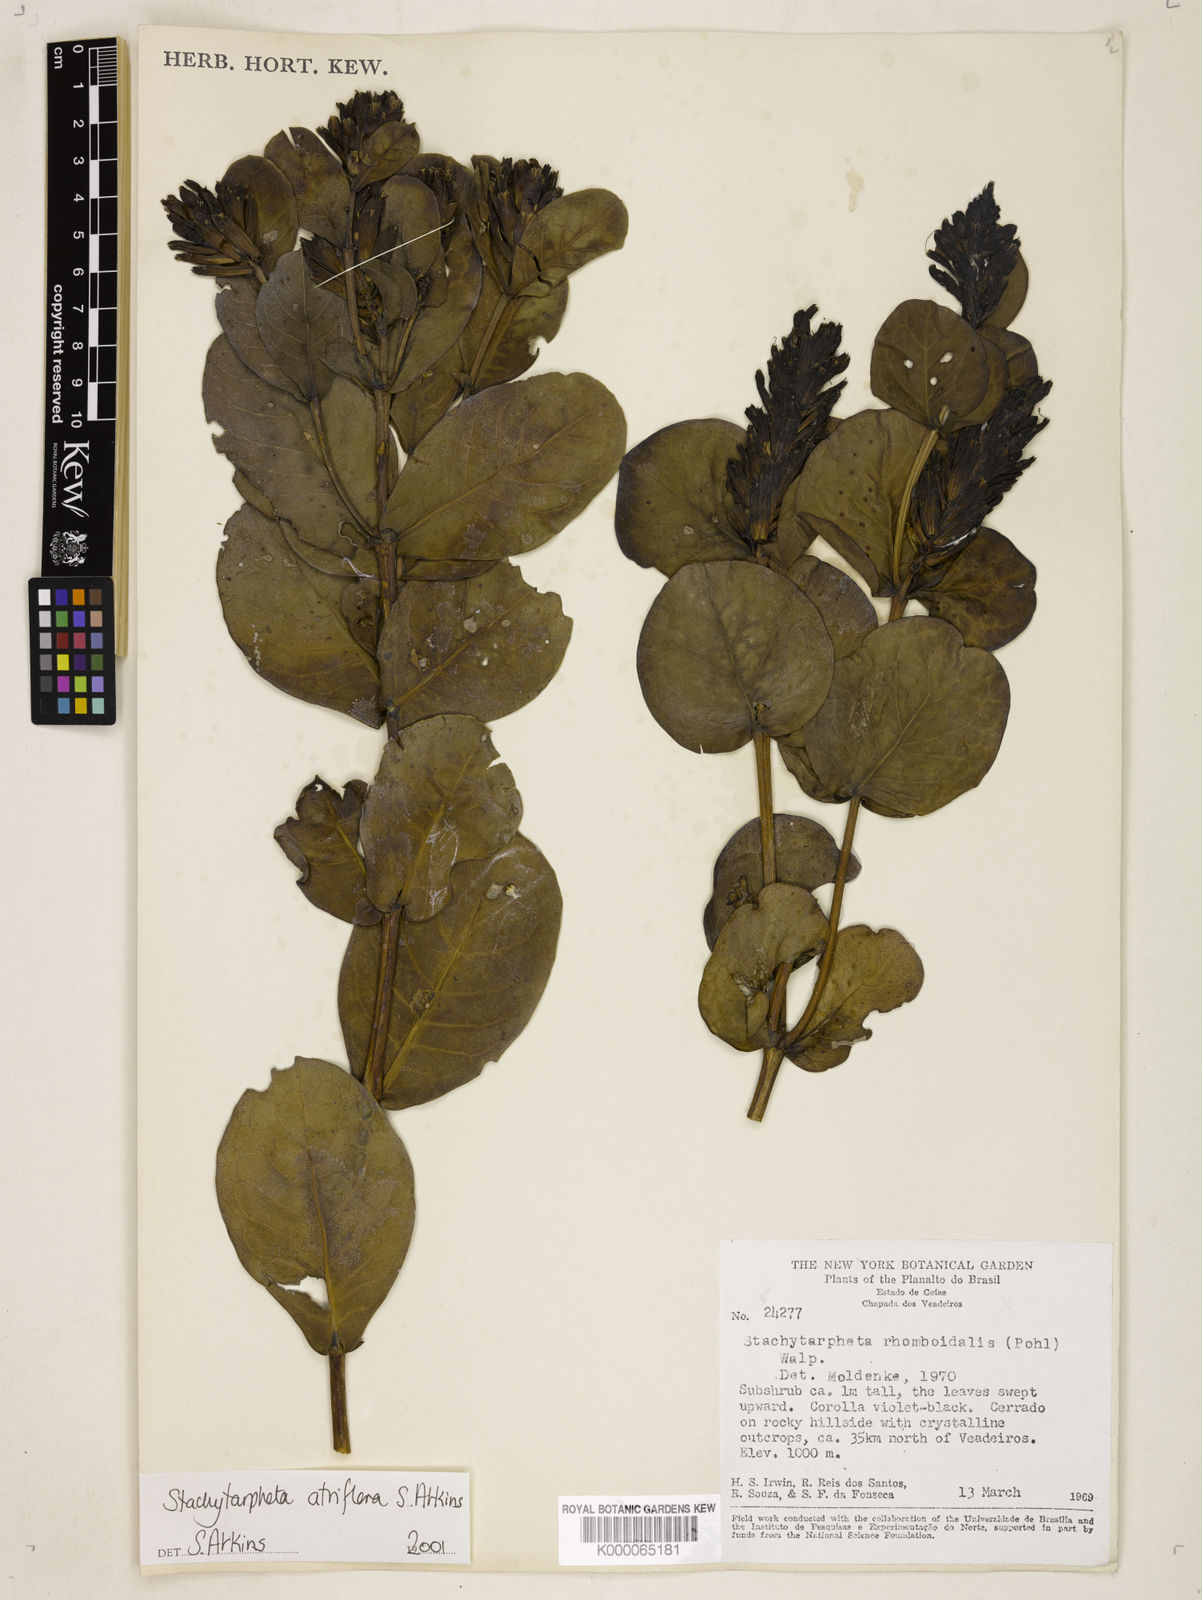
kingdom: Plantae
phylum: Tracheophyta
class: Magnoliopsida
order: Lamiales
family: Verbenaceae
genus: Stachytarpheta
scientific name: Stachytarpheta glauca
